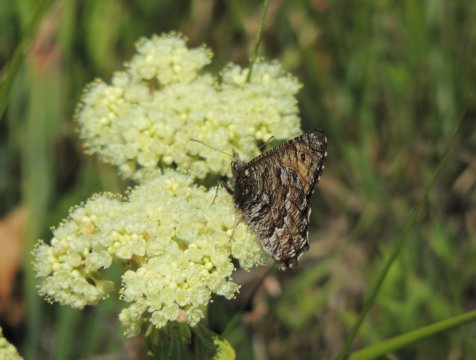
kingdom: Animalia
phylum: Arthropoda
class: Insecta
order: Lepidoptera
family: Nymphalidae
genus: Oeneis
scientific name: Oeneis chryxus
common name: Chryxus Arctic
